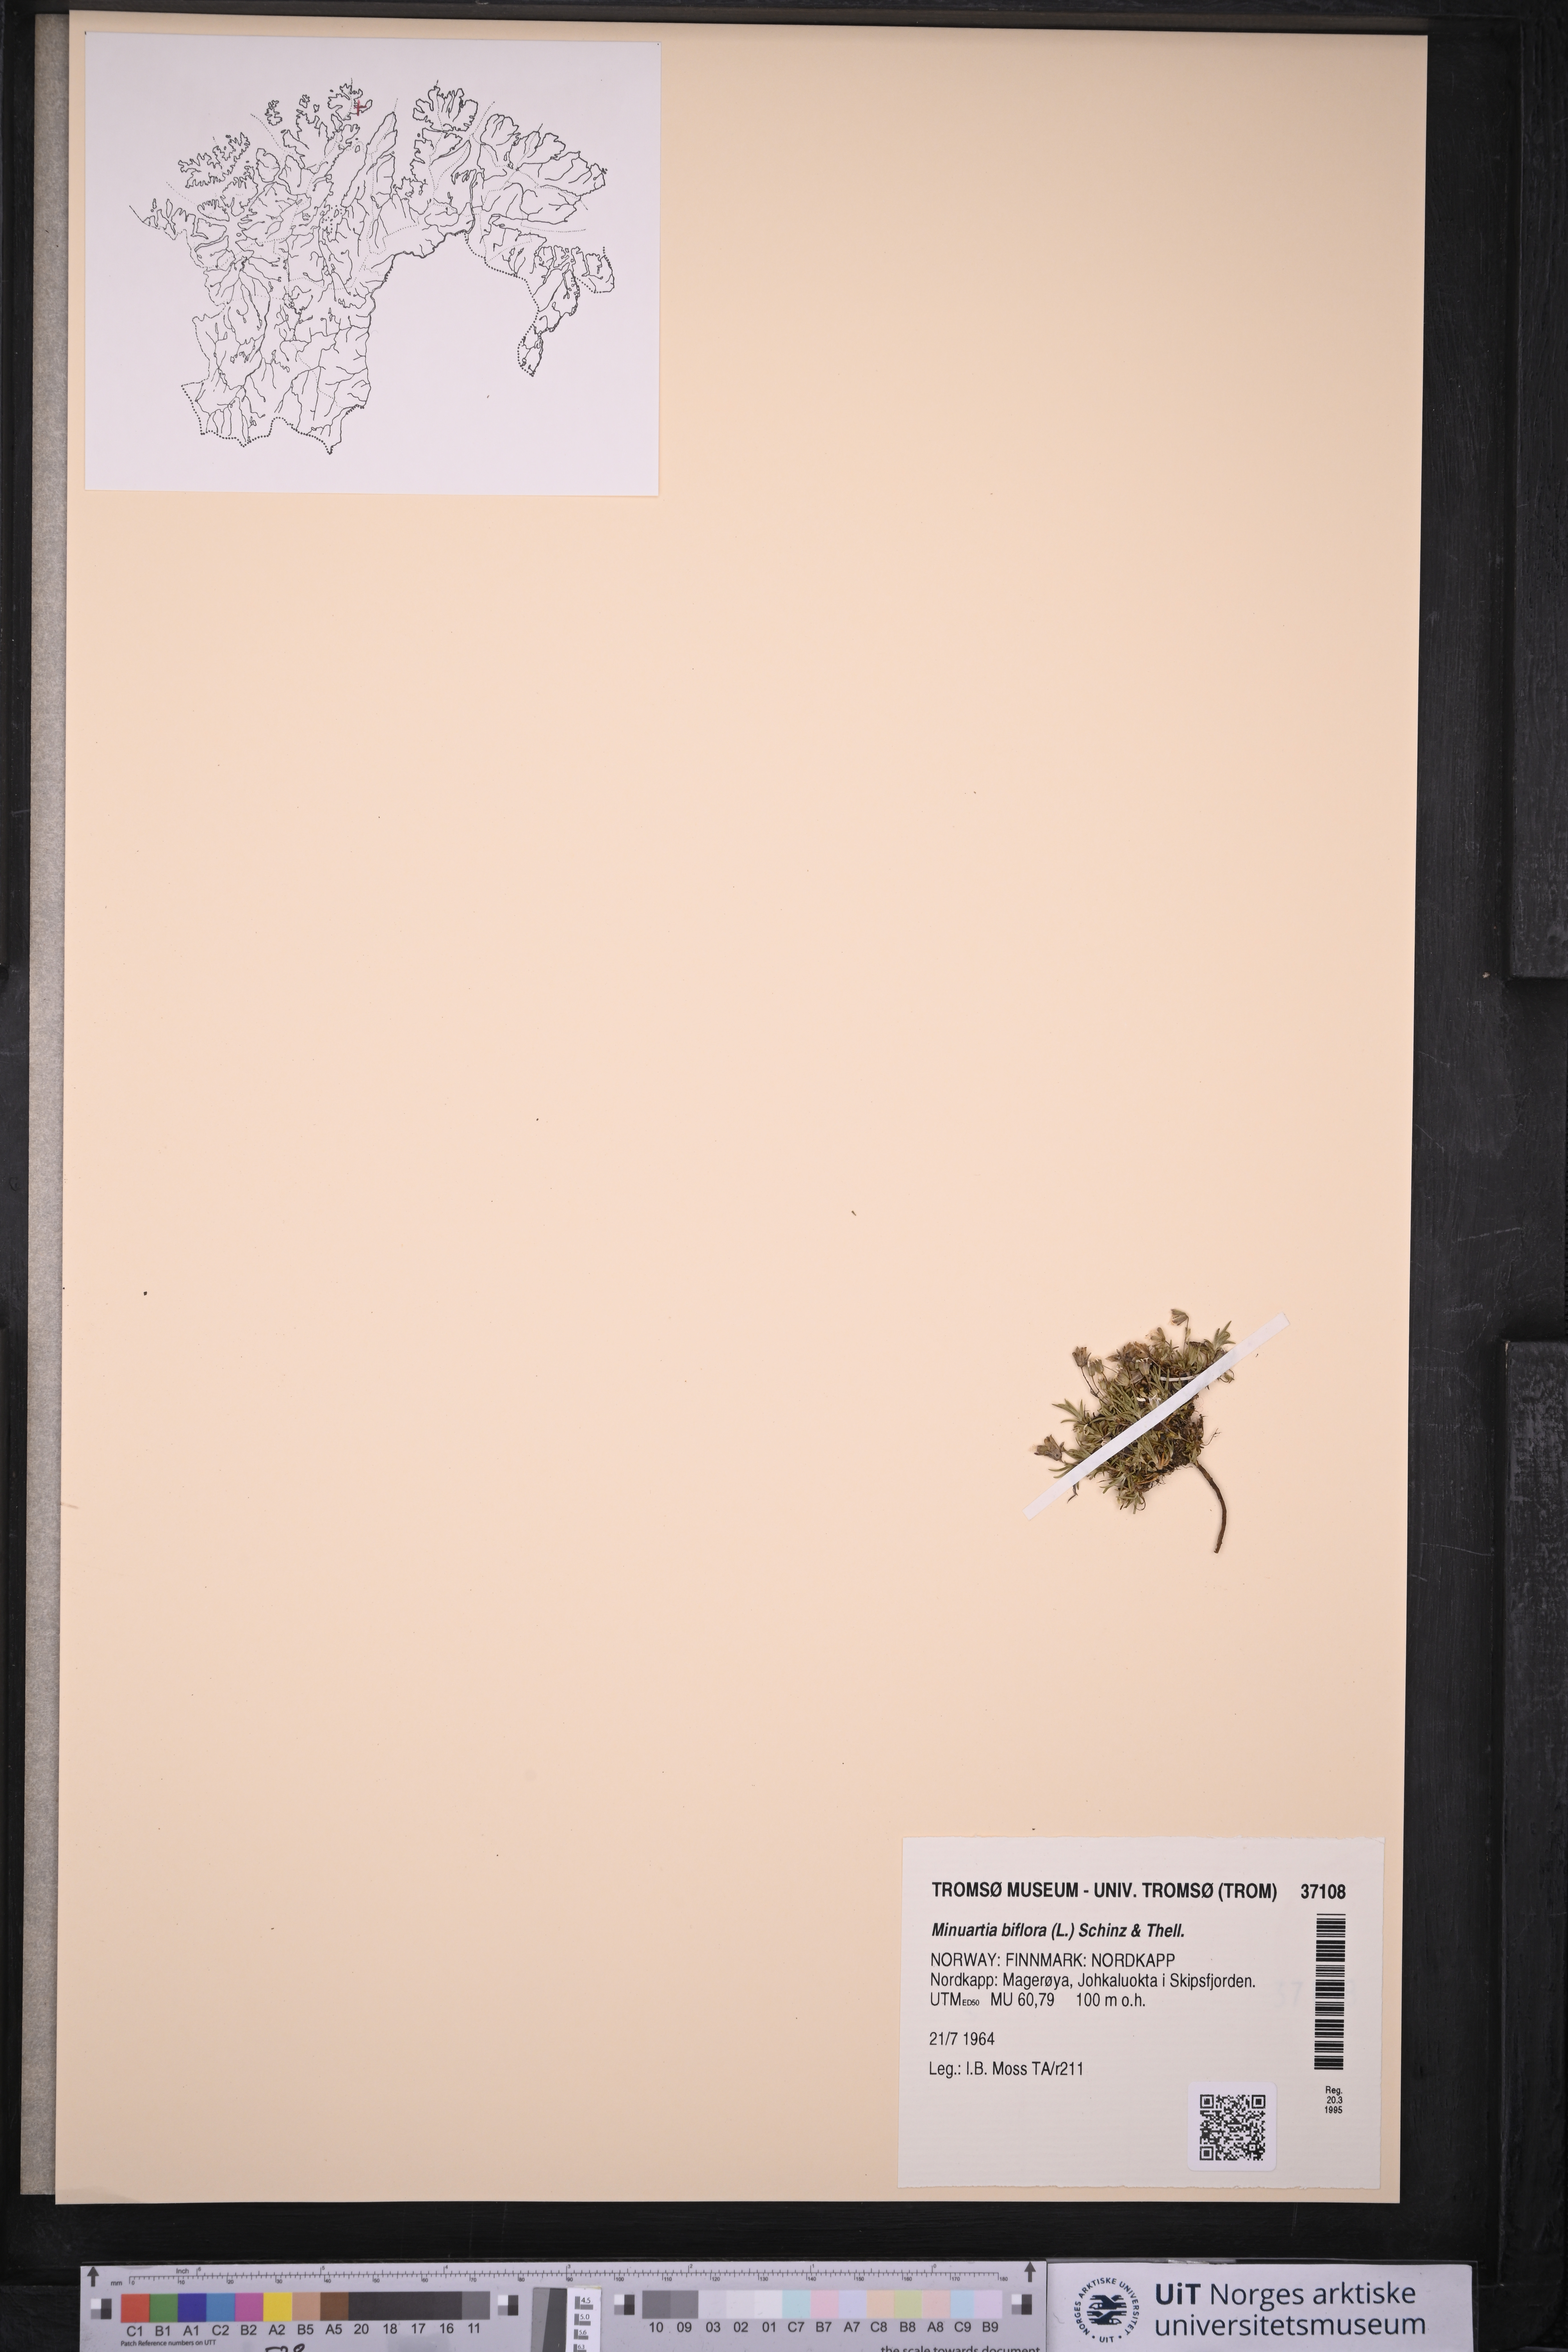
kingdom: Plantae
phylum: Tracheophyta
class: Magnoliopsida
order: Caryophyllales
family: Caryophyllaceae
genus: Cherleria
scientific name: Cherleria biflora
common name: Mountain sandwort
